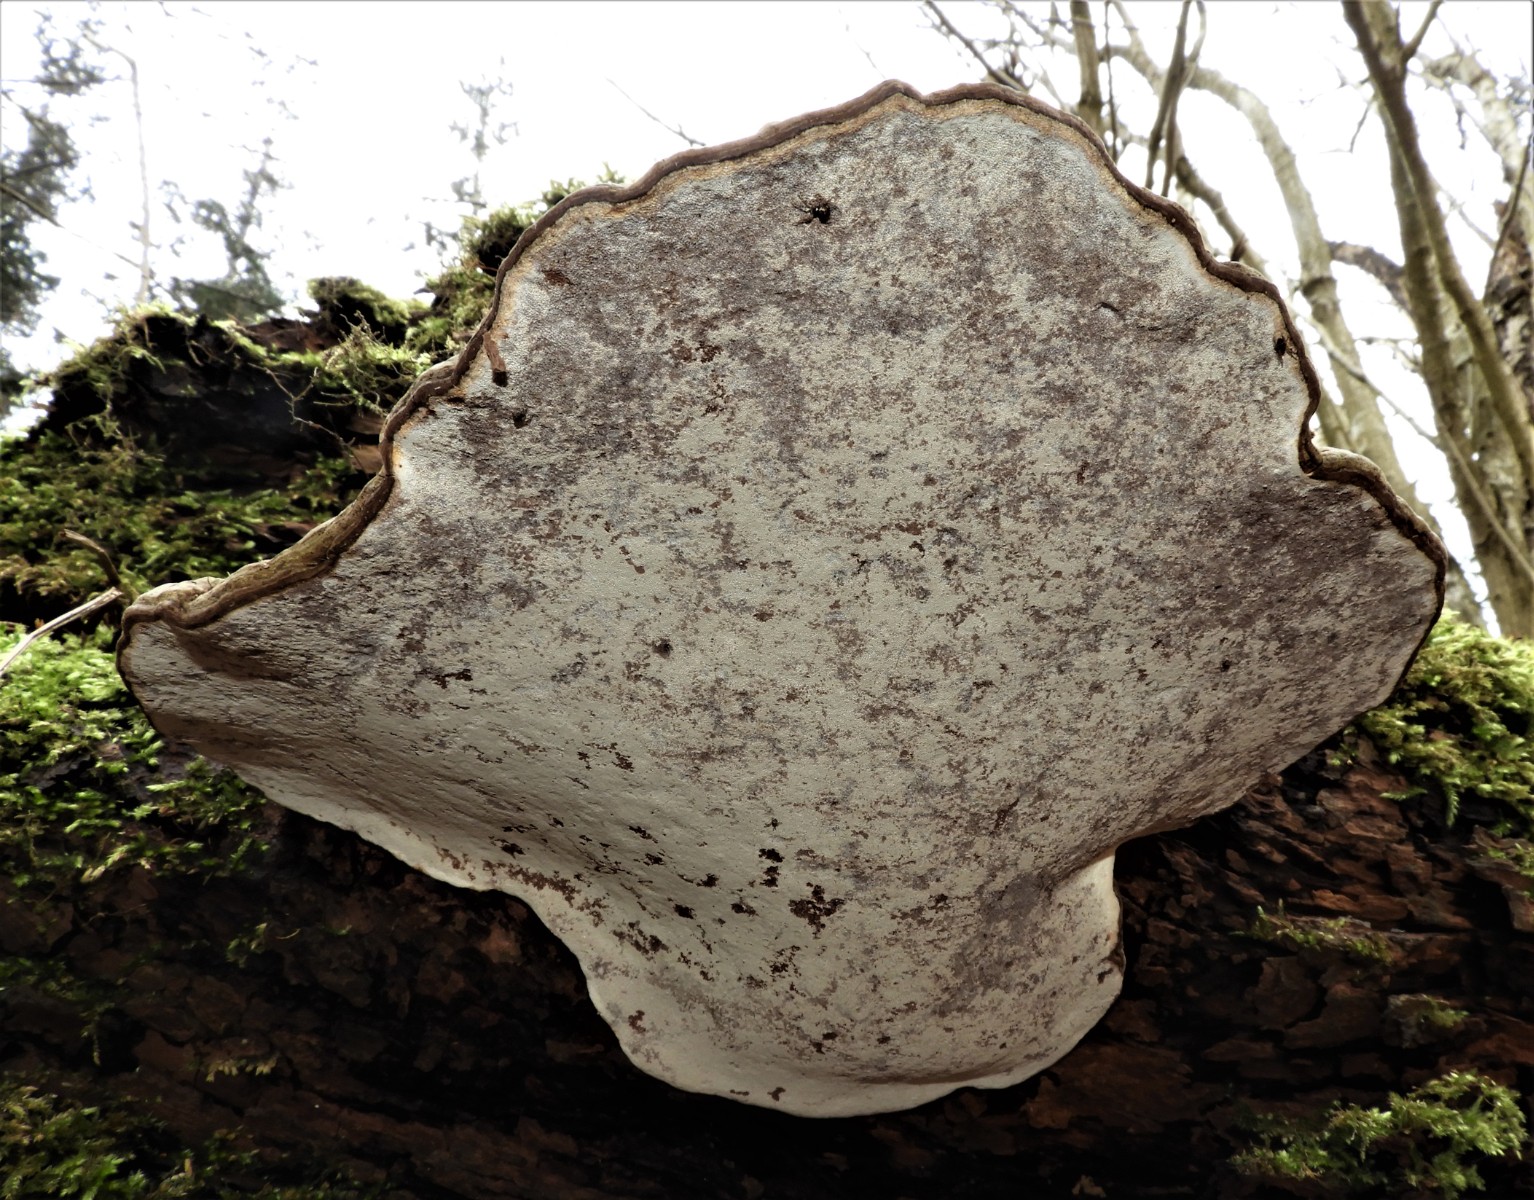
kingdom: Fungi
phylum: Basidiomycota
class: Agaricomycetes
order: Polyporales
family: Polyporaceae
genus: Ganoderma
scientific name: Ganoderma applanatum
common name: flad lakporesvamp
